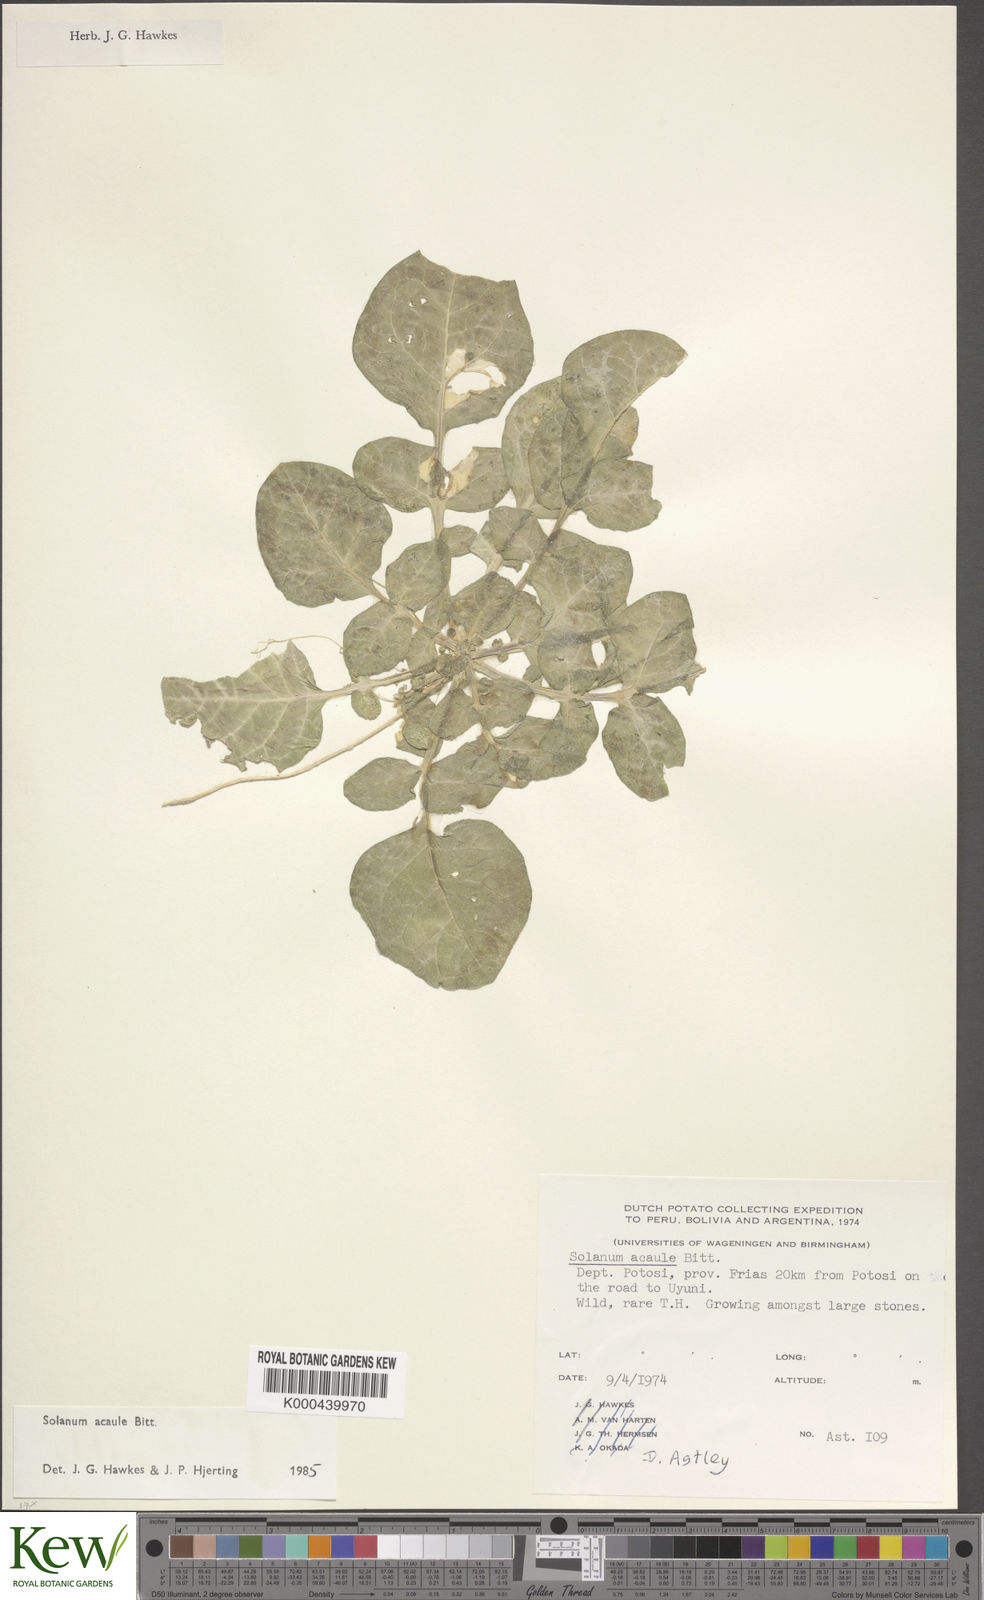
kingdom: Plantae
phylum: Tracheophyta
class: Magnoliopsida
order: Solanales
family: Solanaceae
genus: Solanum
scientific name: Solanum acaule
